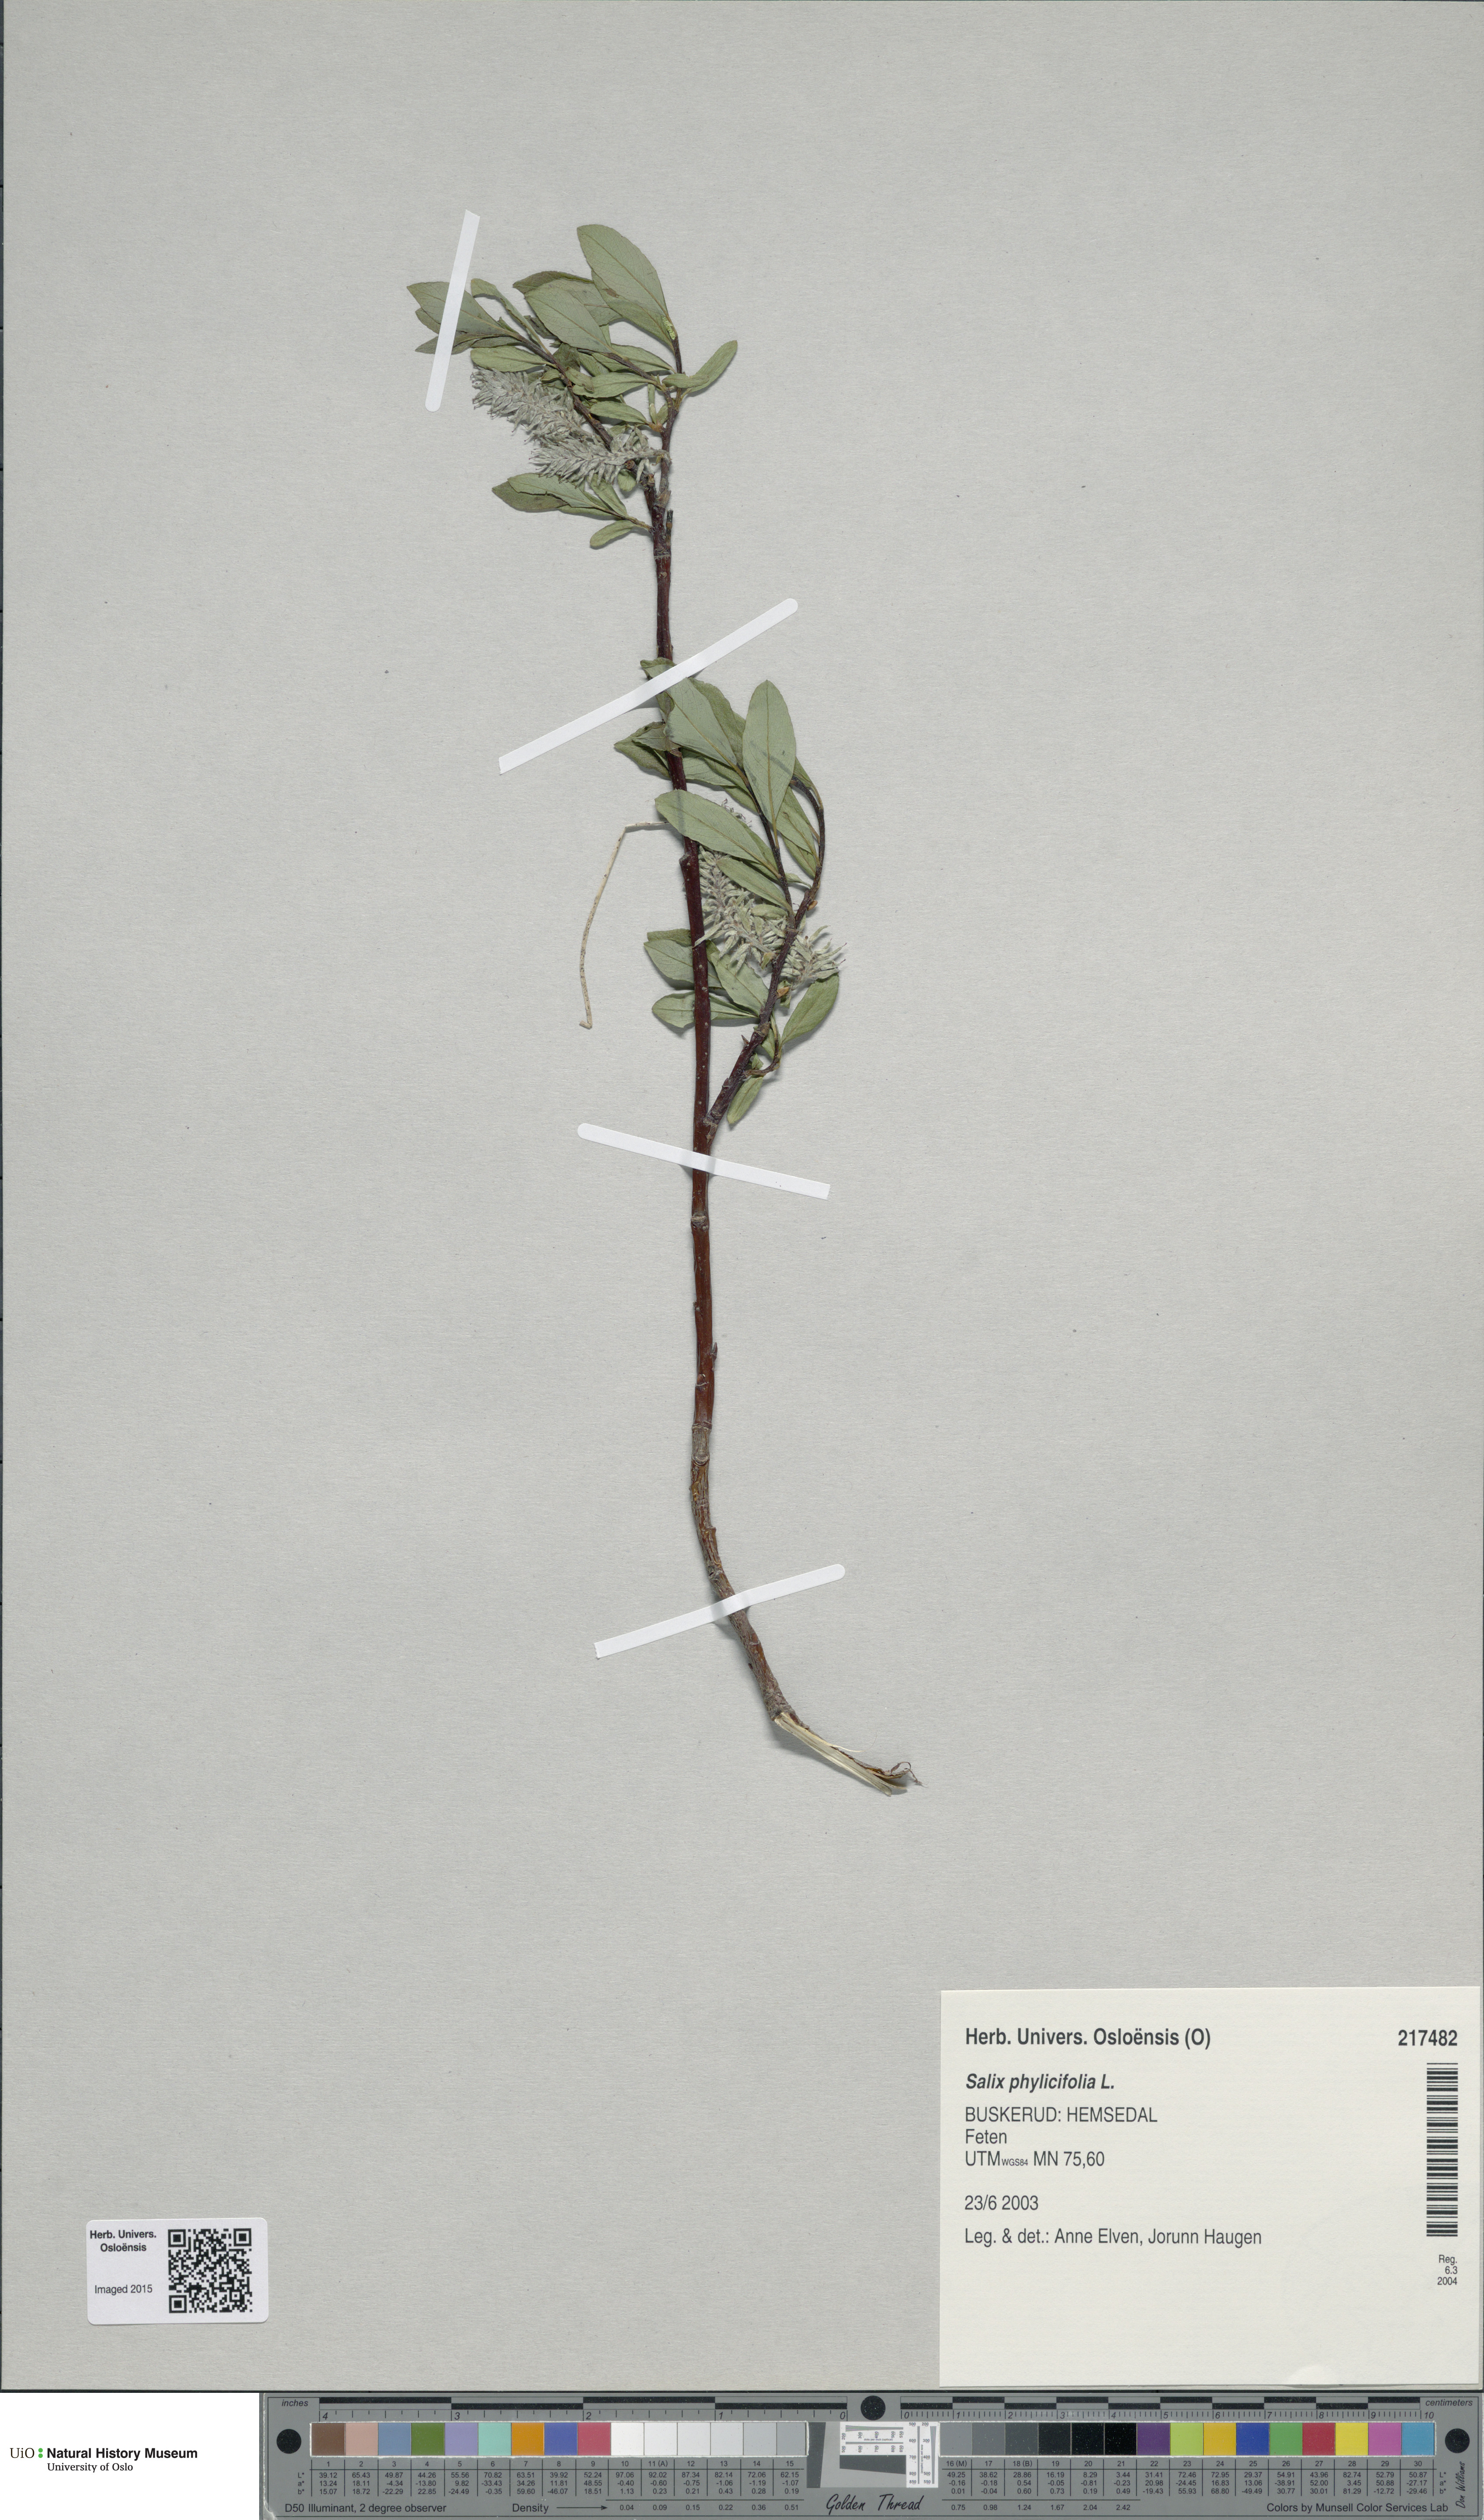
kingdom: Plantae
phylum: Tracheophyta
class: Magnoliopsida
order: Malpighiales
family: Salicaceae
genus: Salix
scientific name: Salix phylicifolia
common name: Tea-leaved willow
